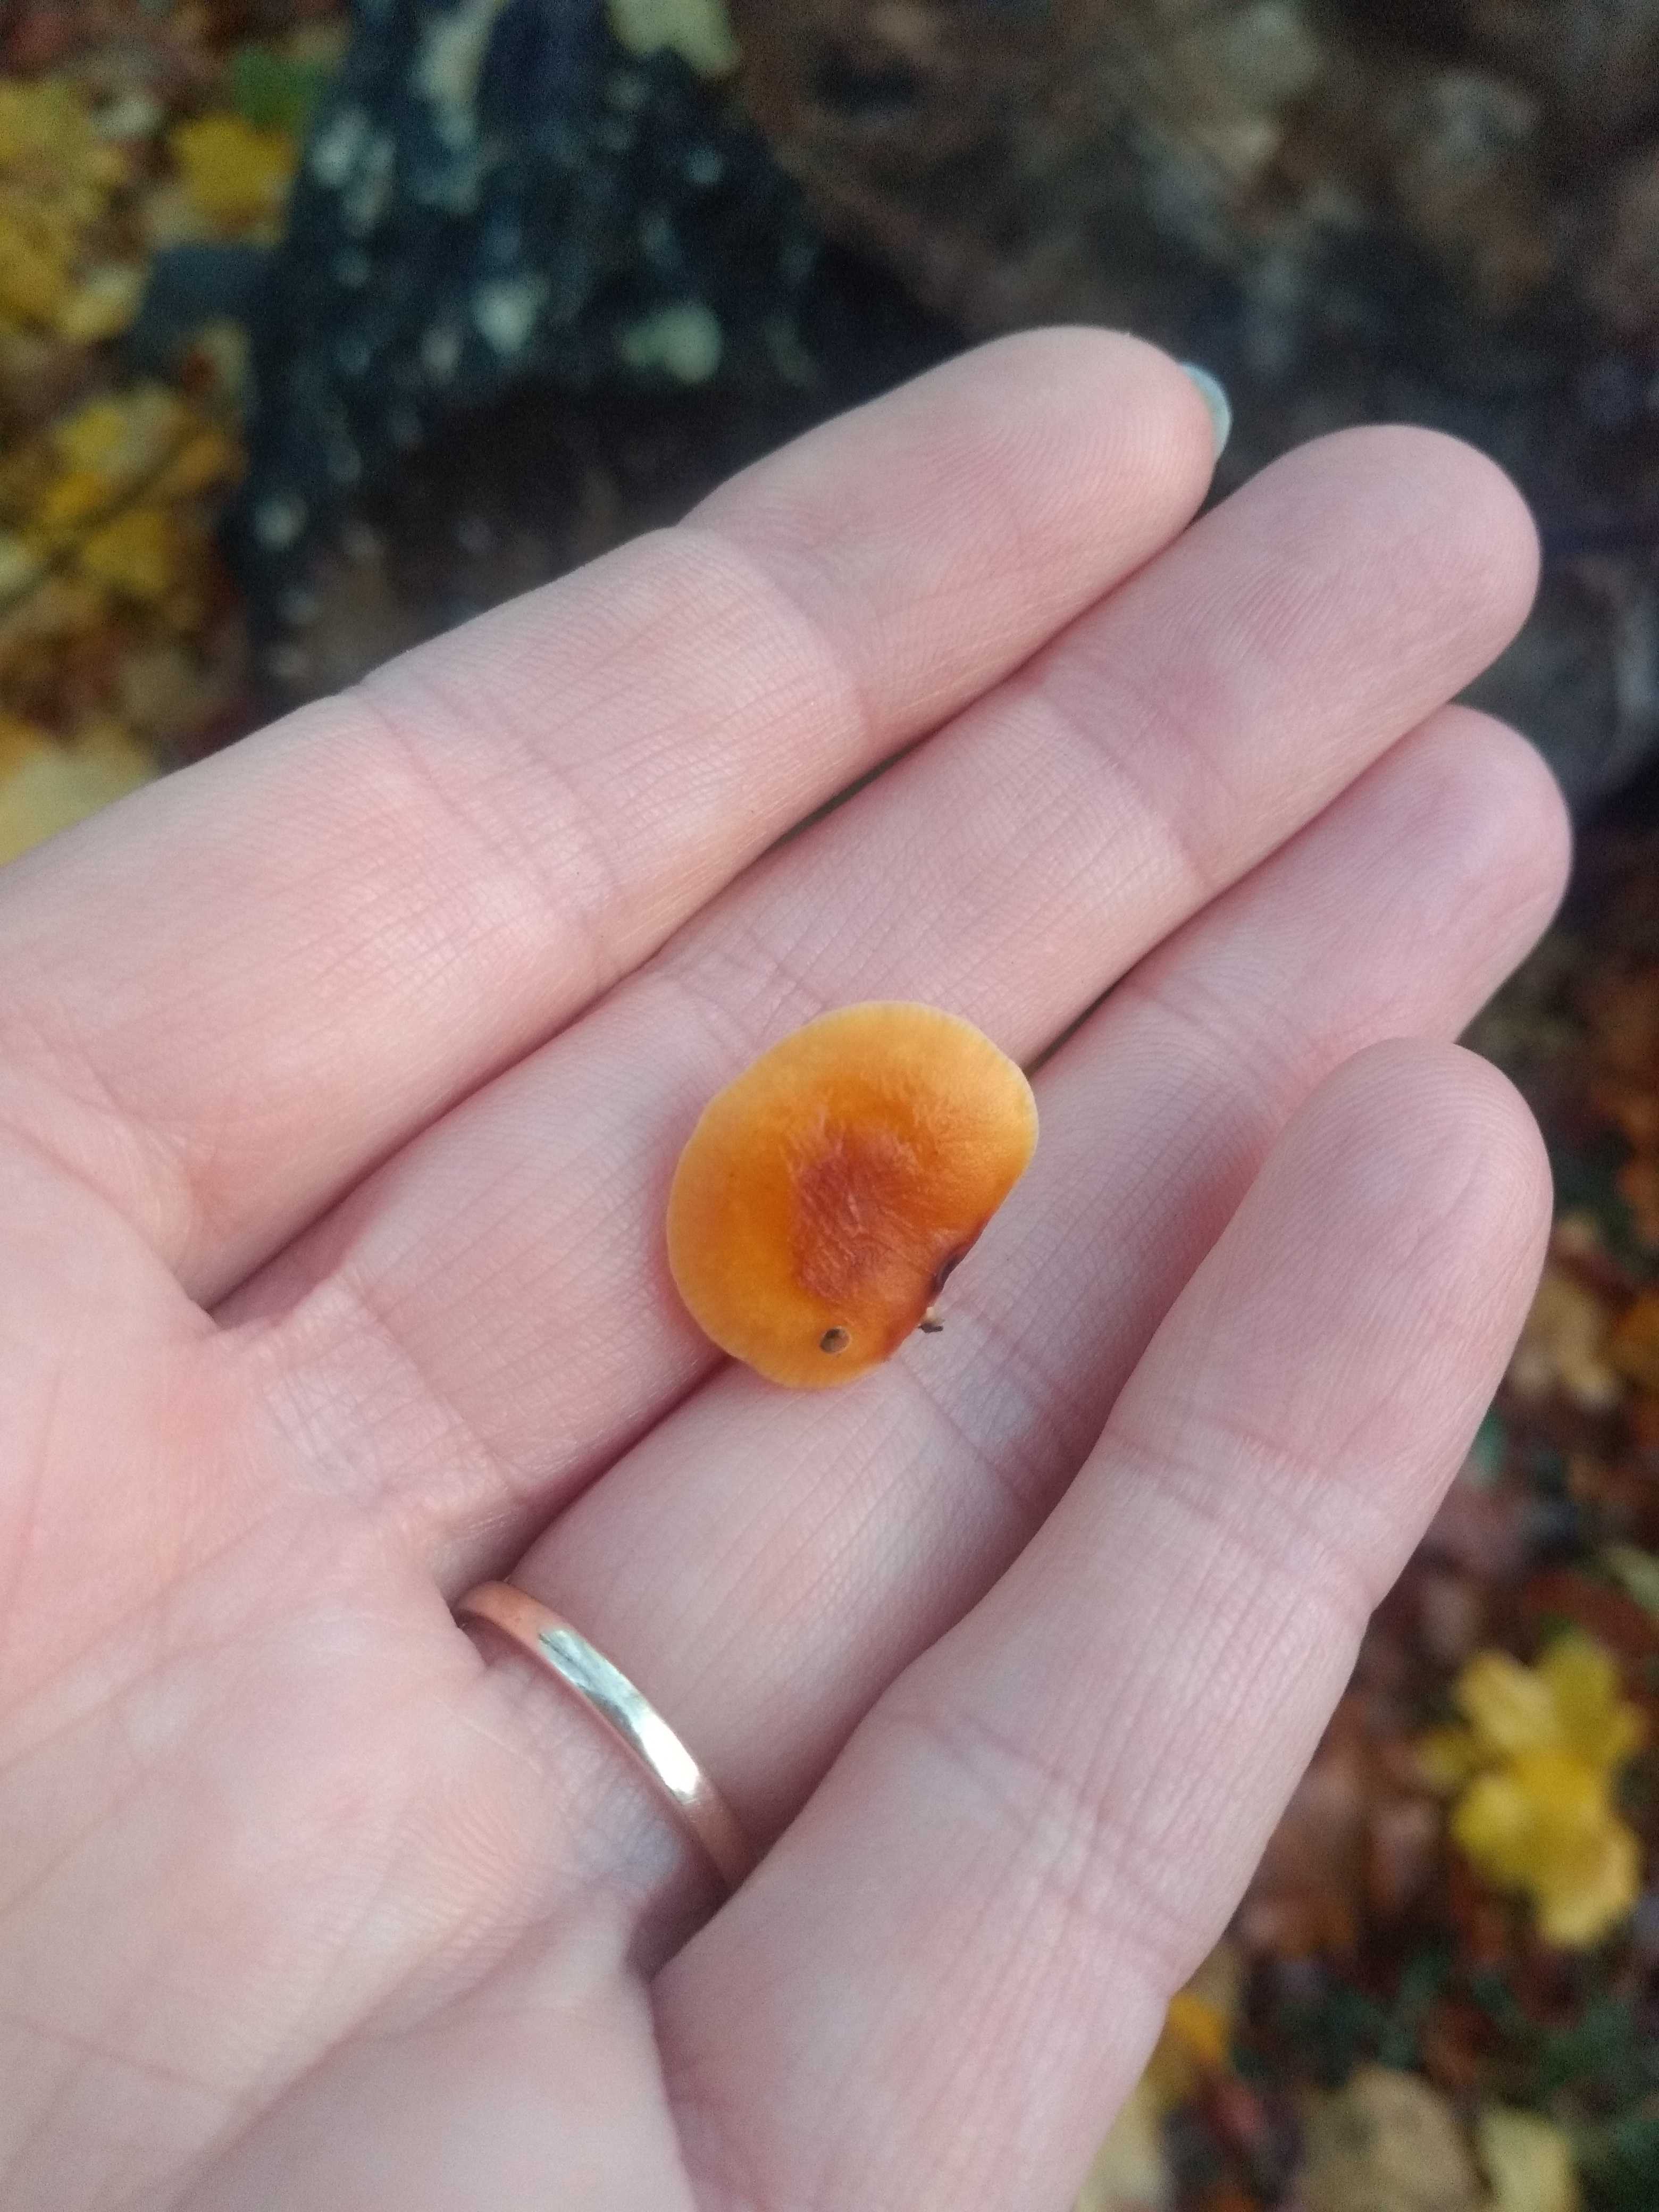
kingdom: Fungi
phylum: Basidiomycota
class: Agaricomycetes
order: Agaricales
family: Physalacriaceae
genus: Flammulina
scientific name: Flammulina
